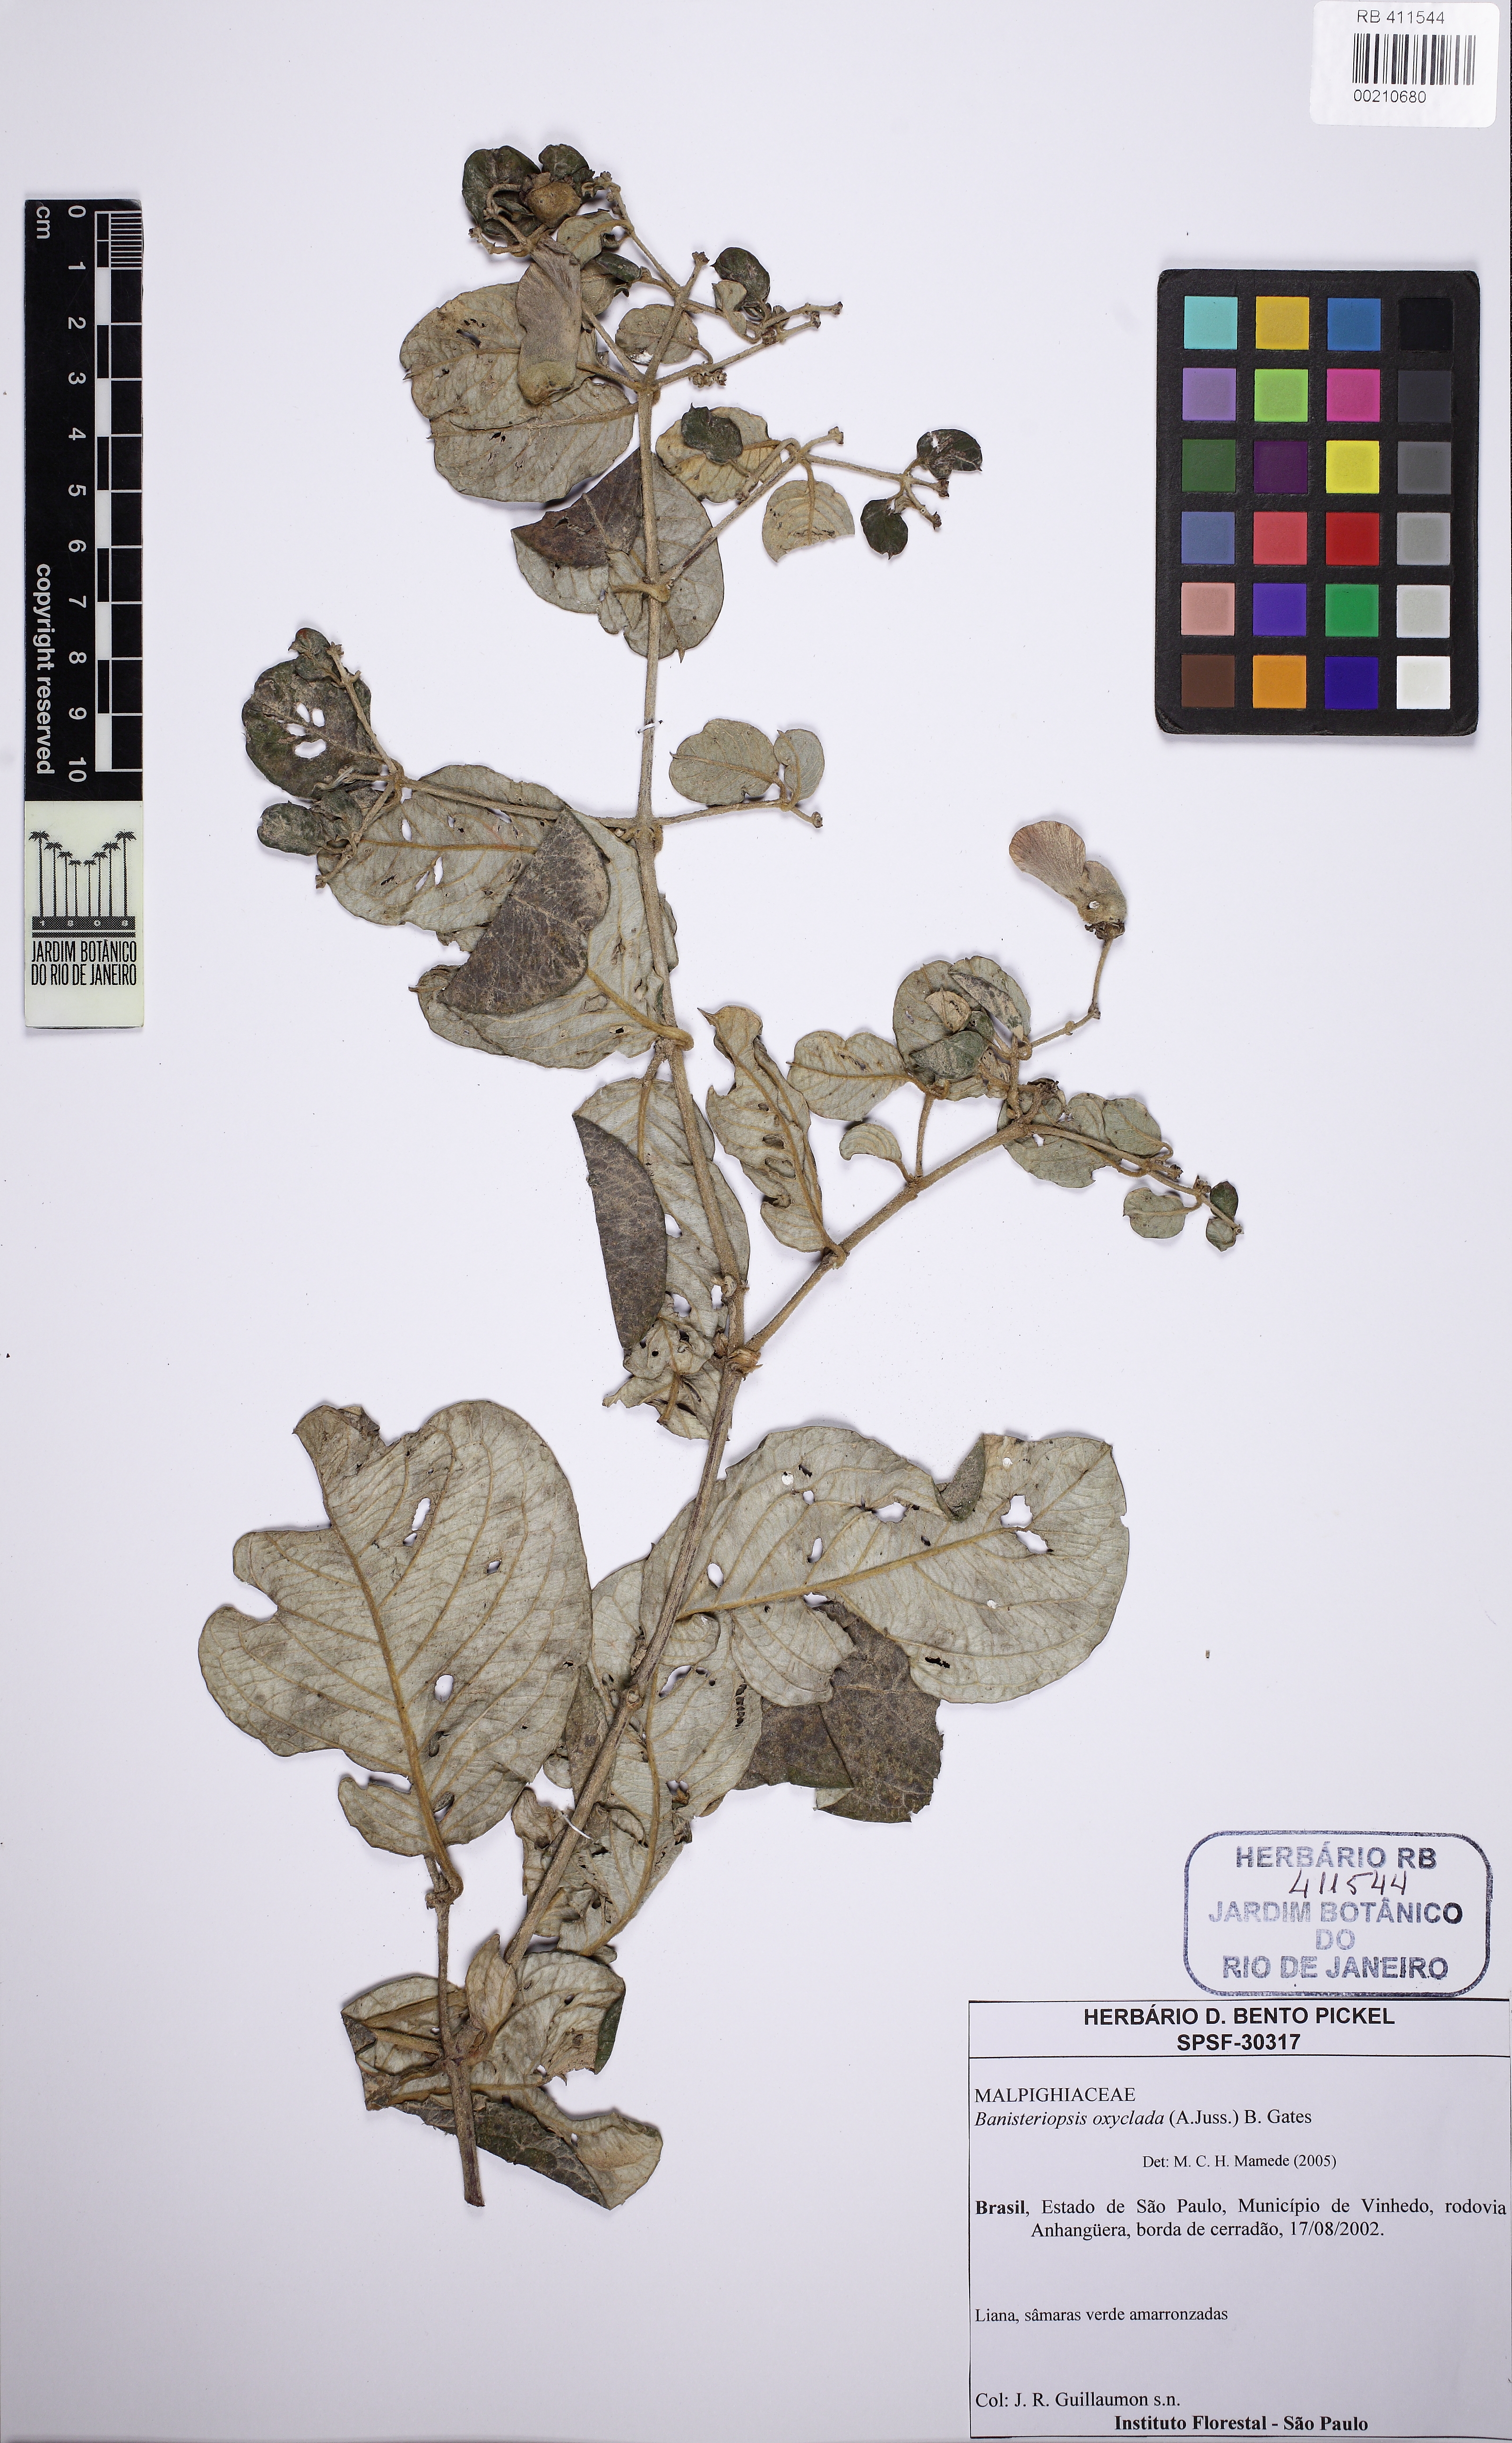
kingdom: Plantae
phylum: Tracheophyta
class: Magnoliopsida
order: Malpighiales
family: Malpighiaceae
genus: Banisteriopsis
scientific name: Banisteriopsis oxyclada
